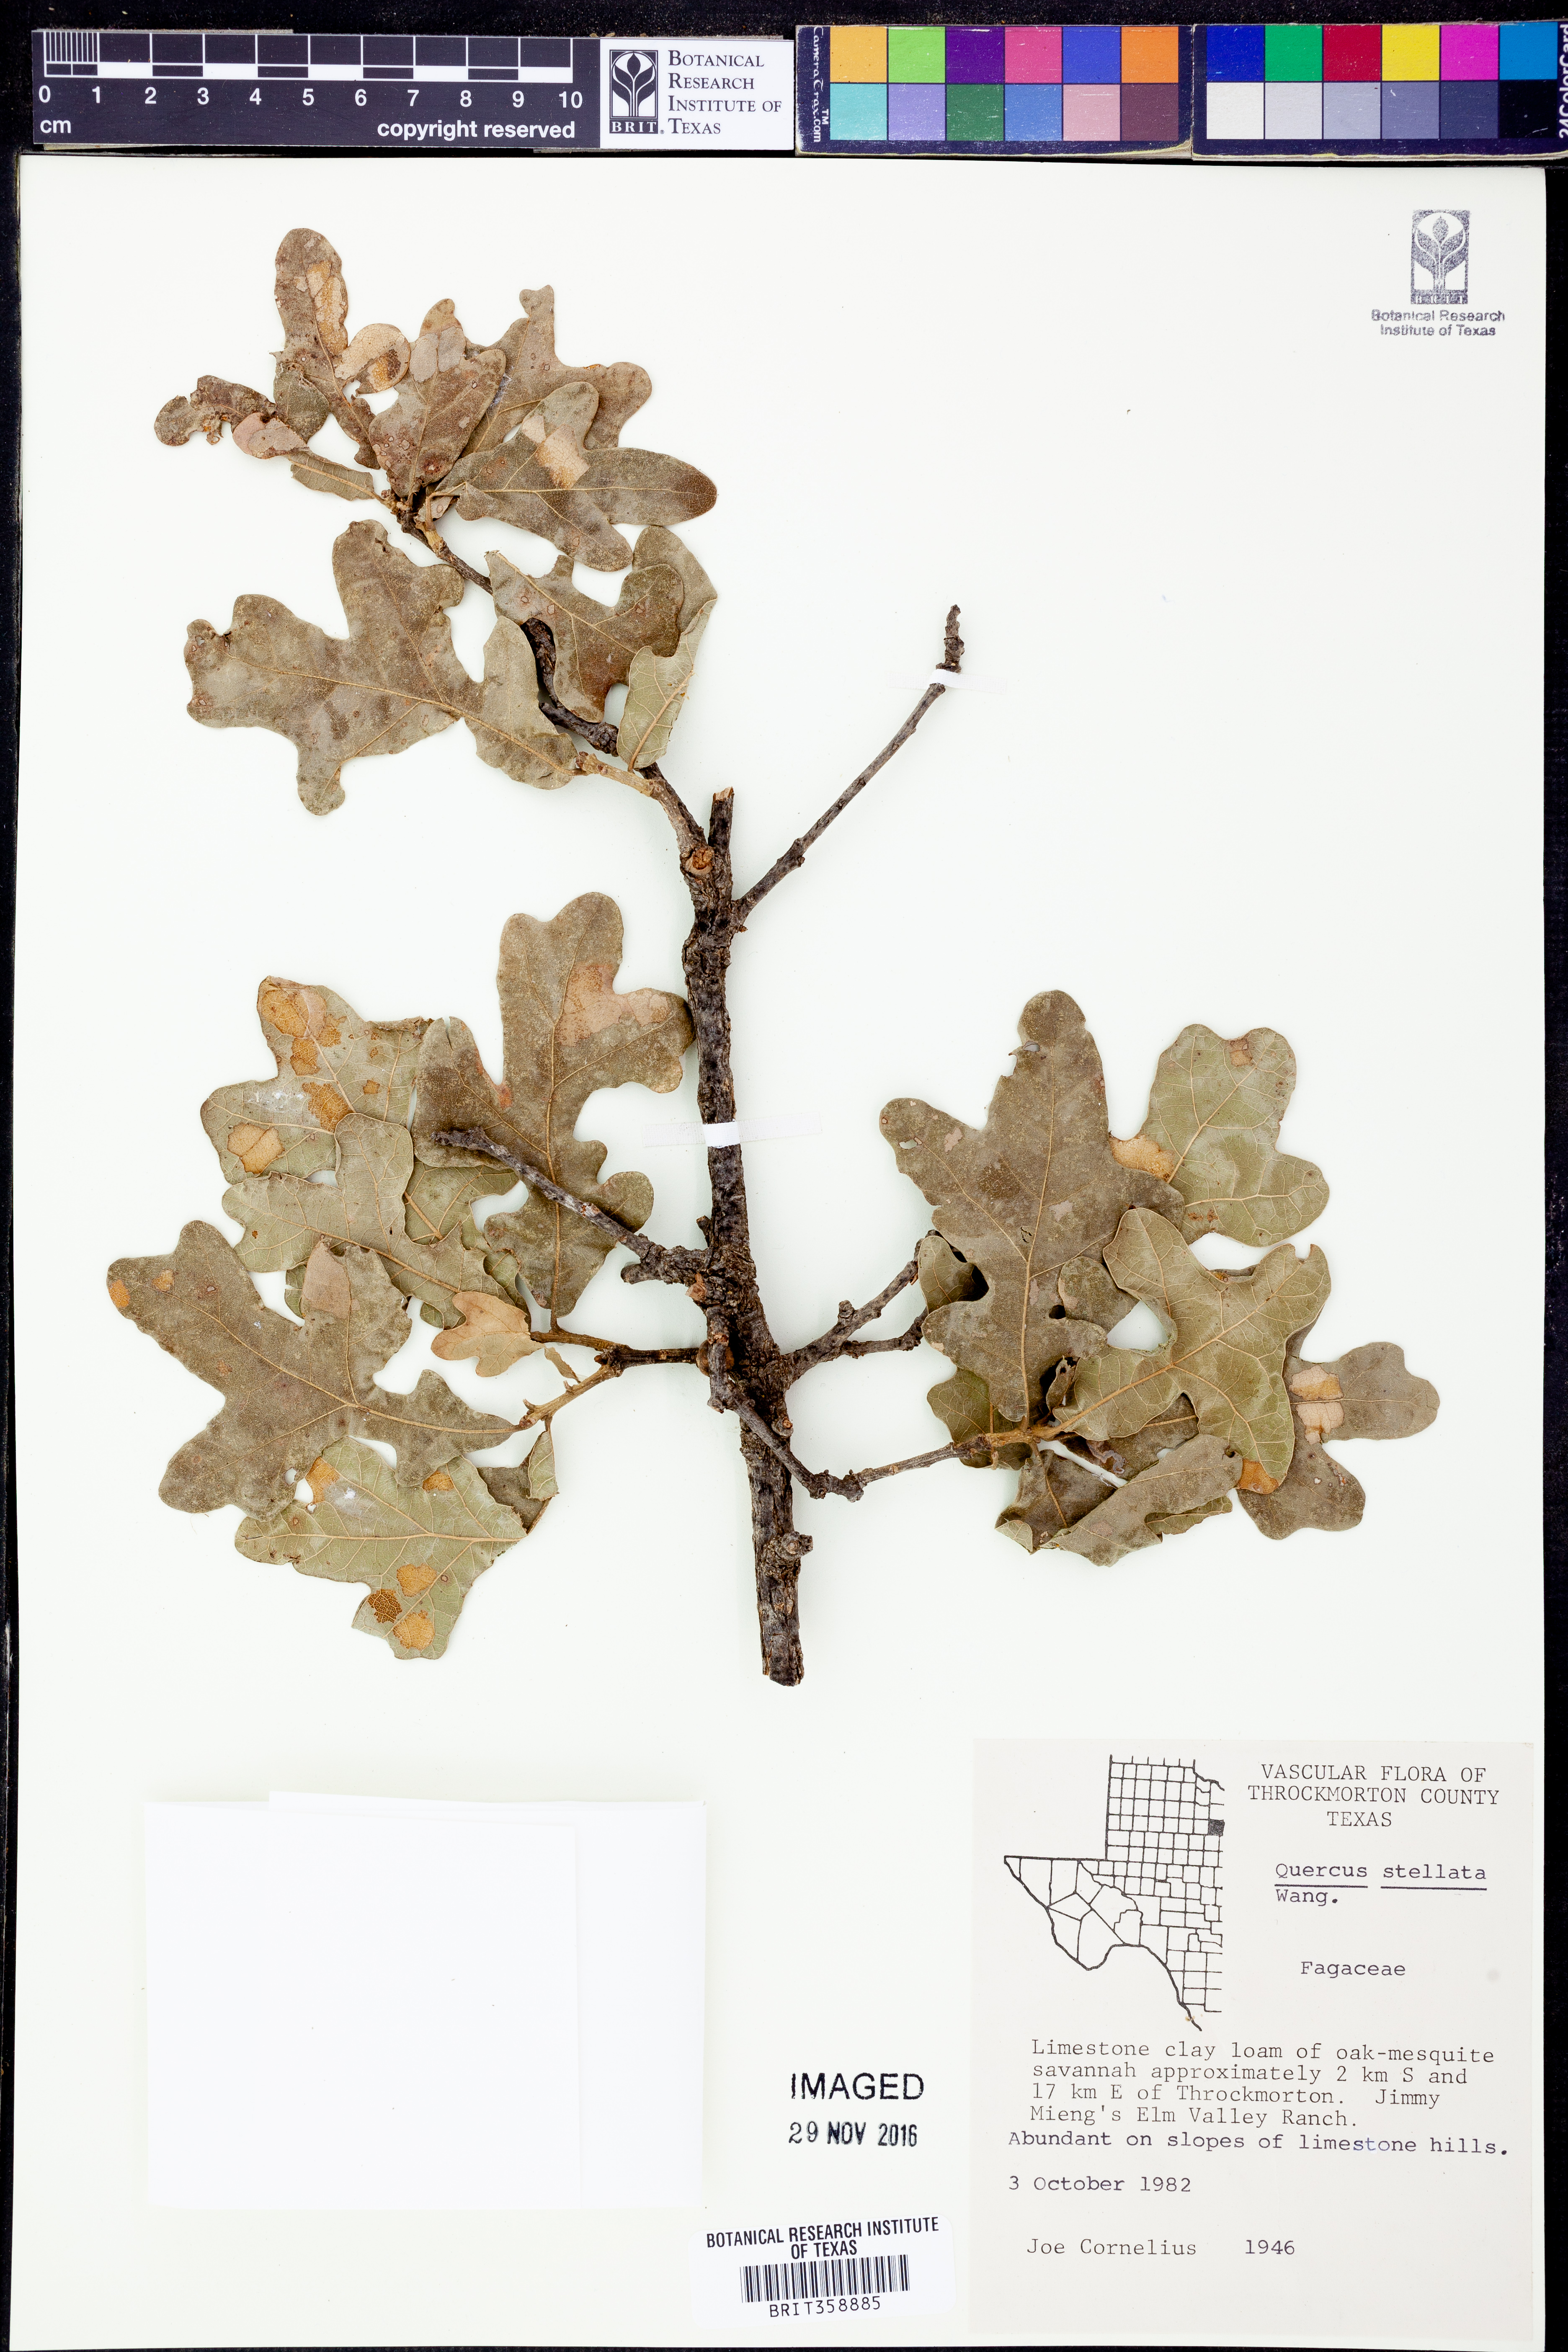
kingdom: Plantae
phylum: Tracheophyta
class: Magnoliopsida
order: Fagales
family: Fagaceae
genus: Quercus
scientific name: Quercus stellata
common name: Post oak
